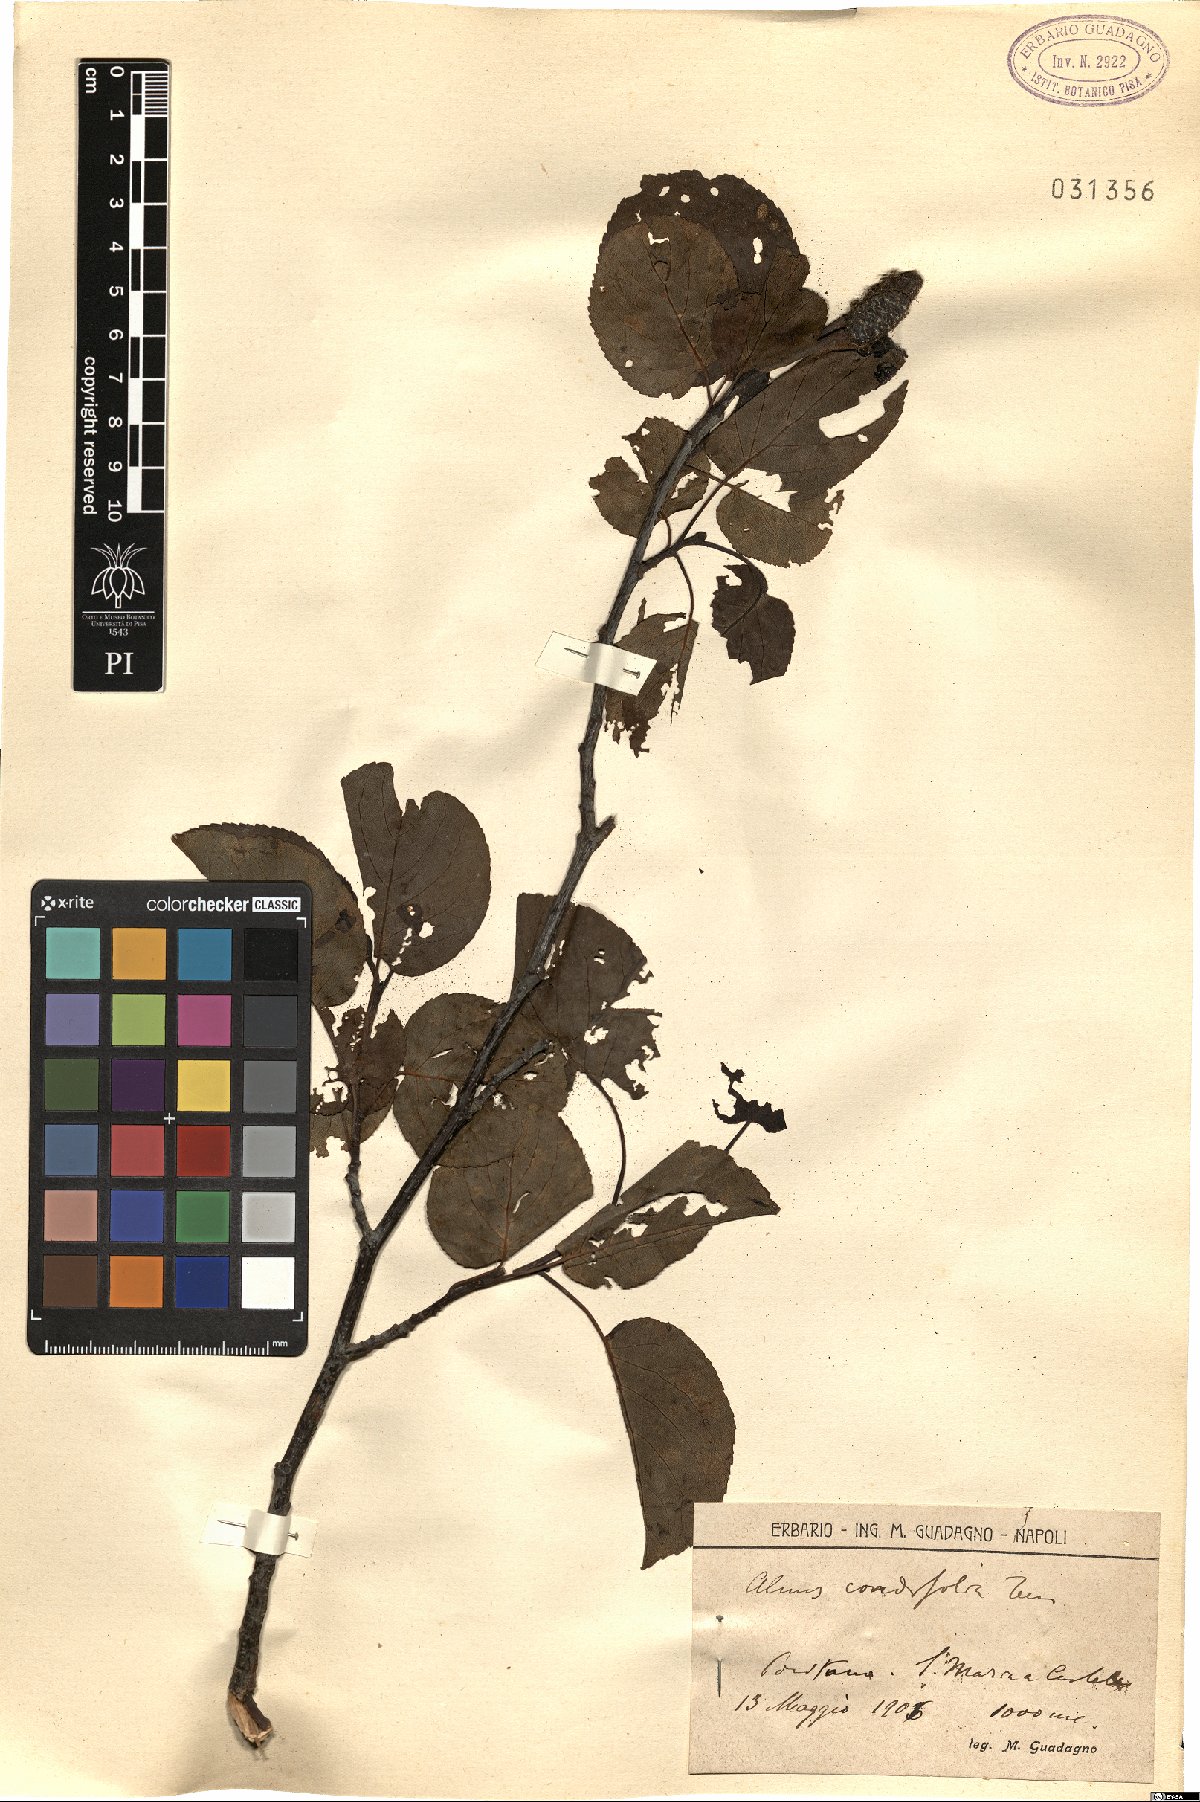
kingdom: Plantae
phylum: Tracheophyta
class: Magnoliopsida
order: Fagales
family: Betulaceae
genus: Alnus
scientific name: Alnus cordata
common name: Italian alder
